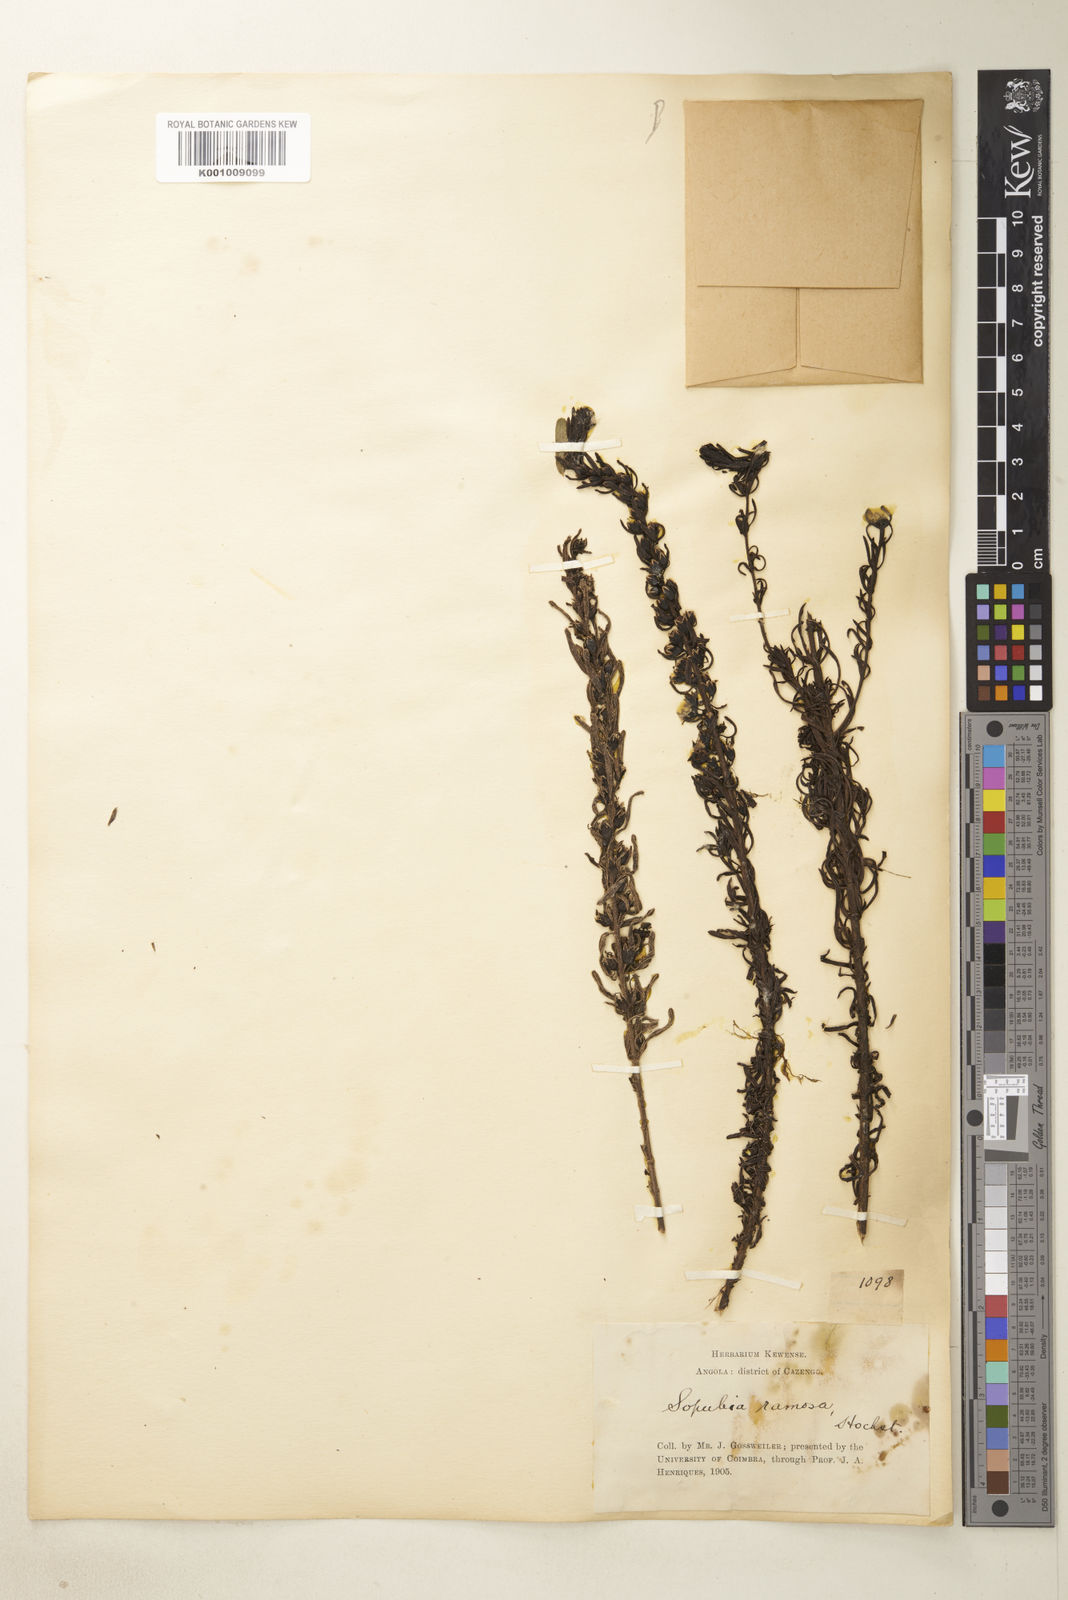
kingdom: Plantae
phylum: Tracheophyta
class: Magnoliopsida
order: Lamiales
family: Orobanchaceae
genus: Sopubia
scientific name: Sopubia ramosa
